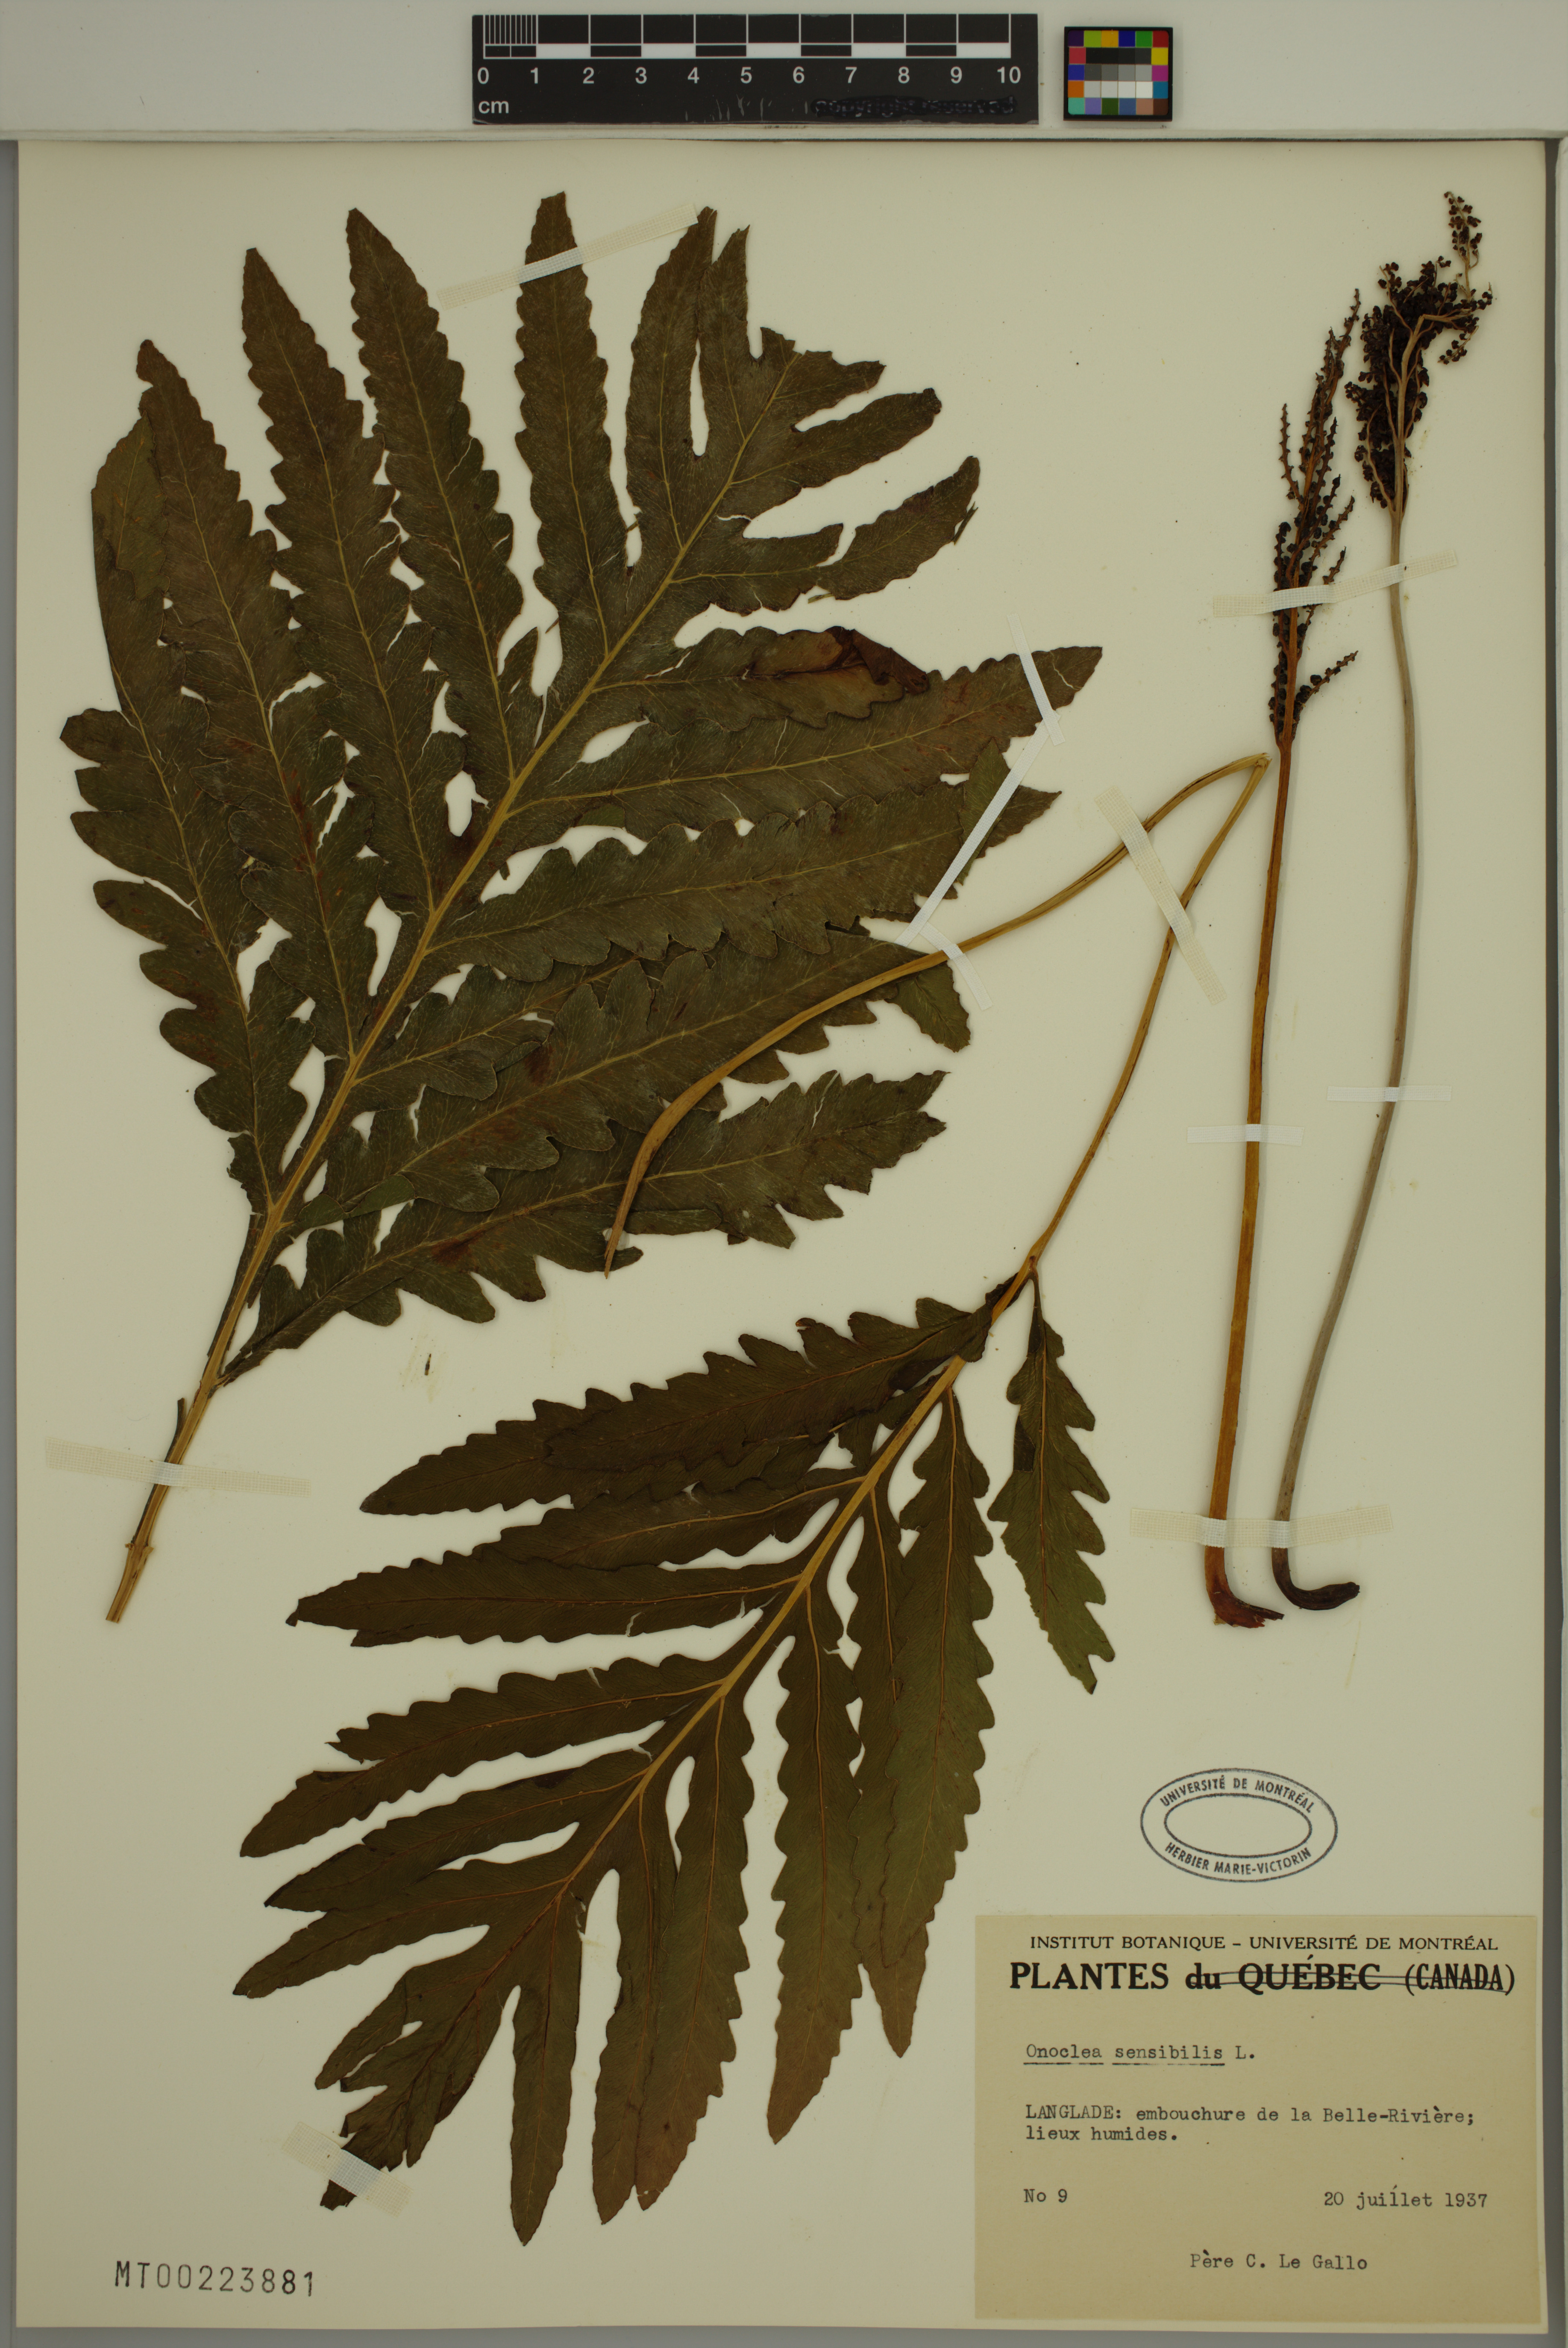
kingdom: Plantae
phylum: Tracheophyta
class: Polypodiopsida
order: Polypodiales
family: Onocleaceae
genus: Onoclea
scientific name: Onoclea sensibilis
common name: Sensitive fern
